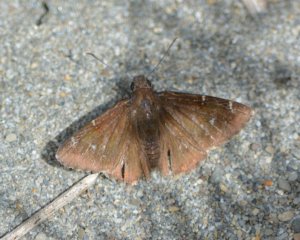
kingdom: Animalia
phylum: Arthropoda
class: Insecta
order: Lepidoptera
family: Hesperiidae
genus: Autochton
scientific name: Autochton
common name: Northern Cloudywing
